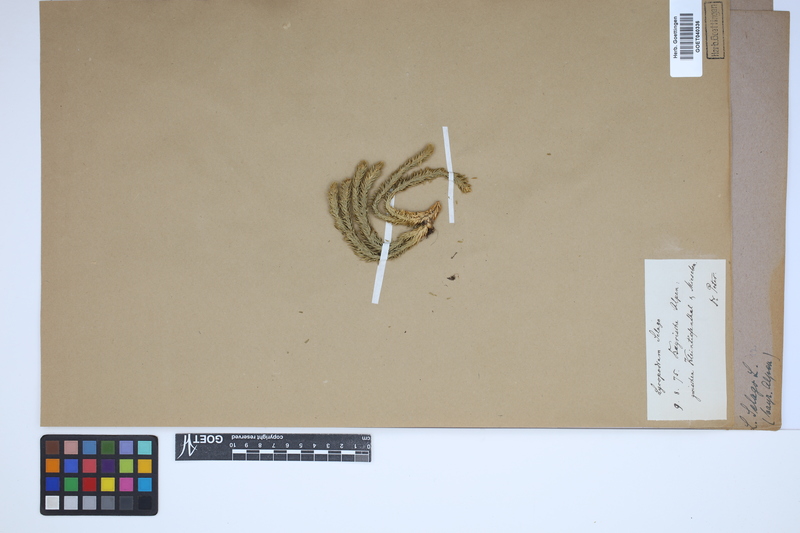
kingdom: Plantae
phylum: Tracheophyta
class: Lycopodiopsida
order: Lycopodiales
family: Lycopodiaceae
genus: Huperzia
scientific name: Huperzia selago
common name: Northern firmoss
